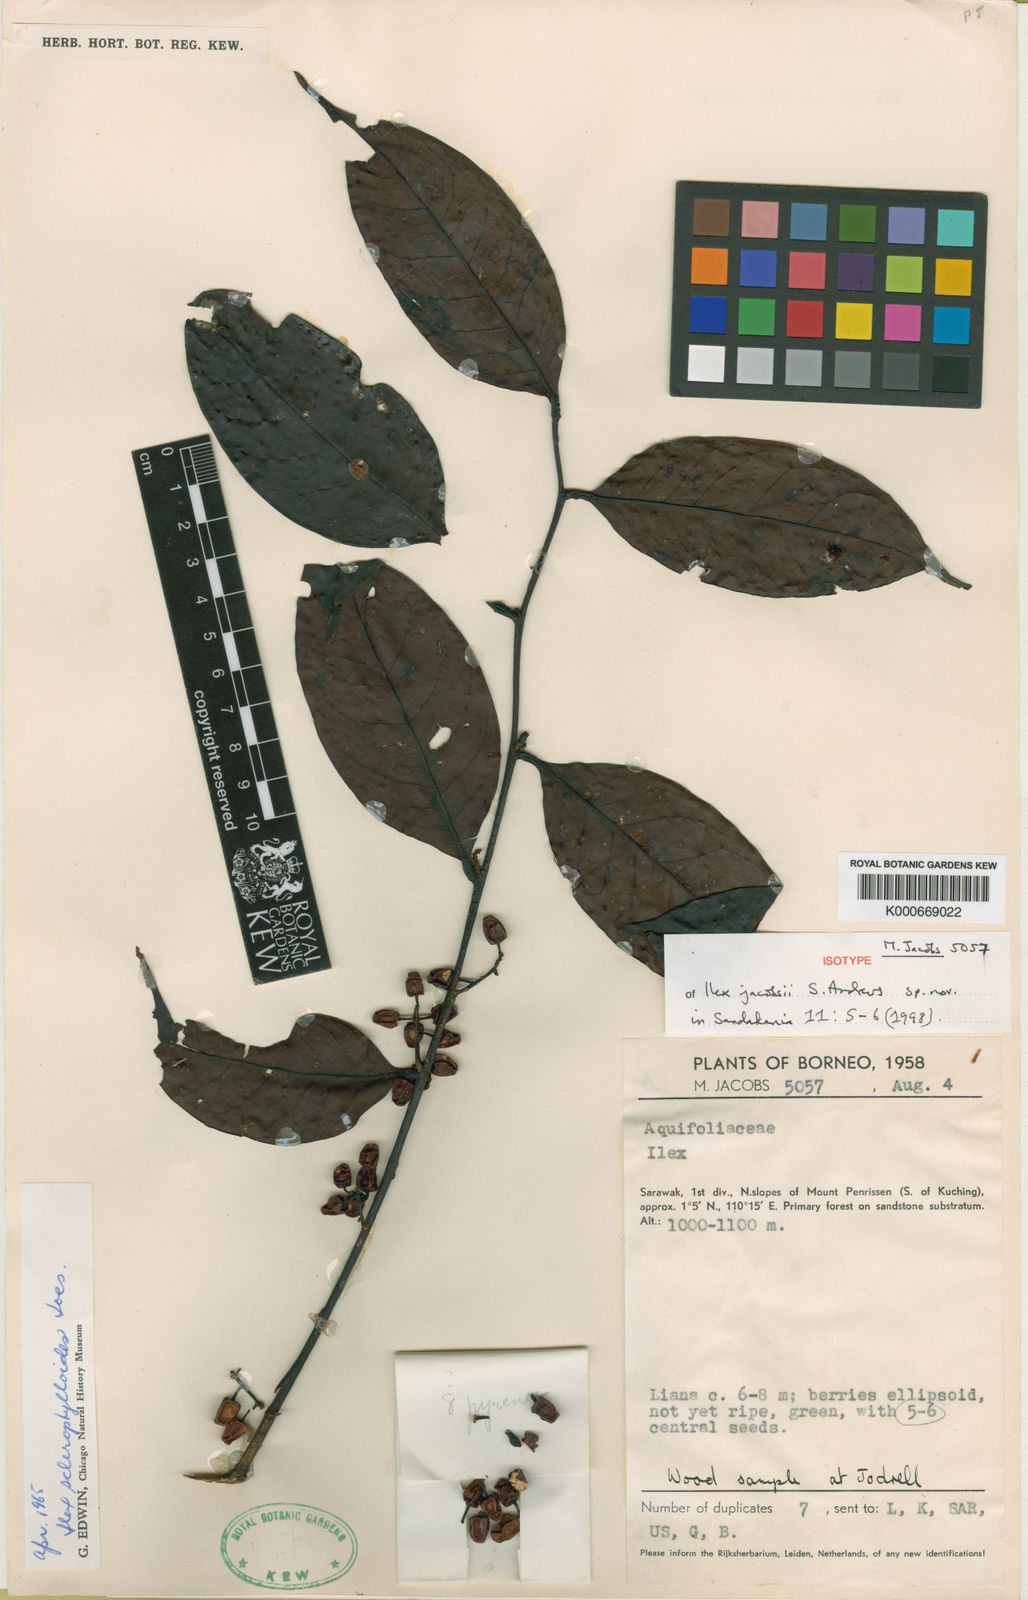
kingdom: Plantae
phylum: Tracheophyta
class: Magnoliopsida
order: Aquifoliales
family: Aquifoliaceae
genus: Ilex
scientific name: Ilex jacobsii
